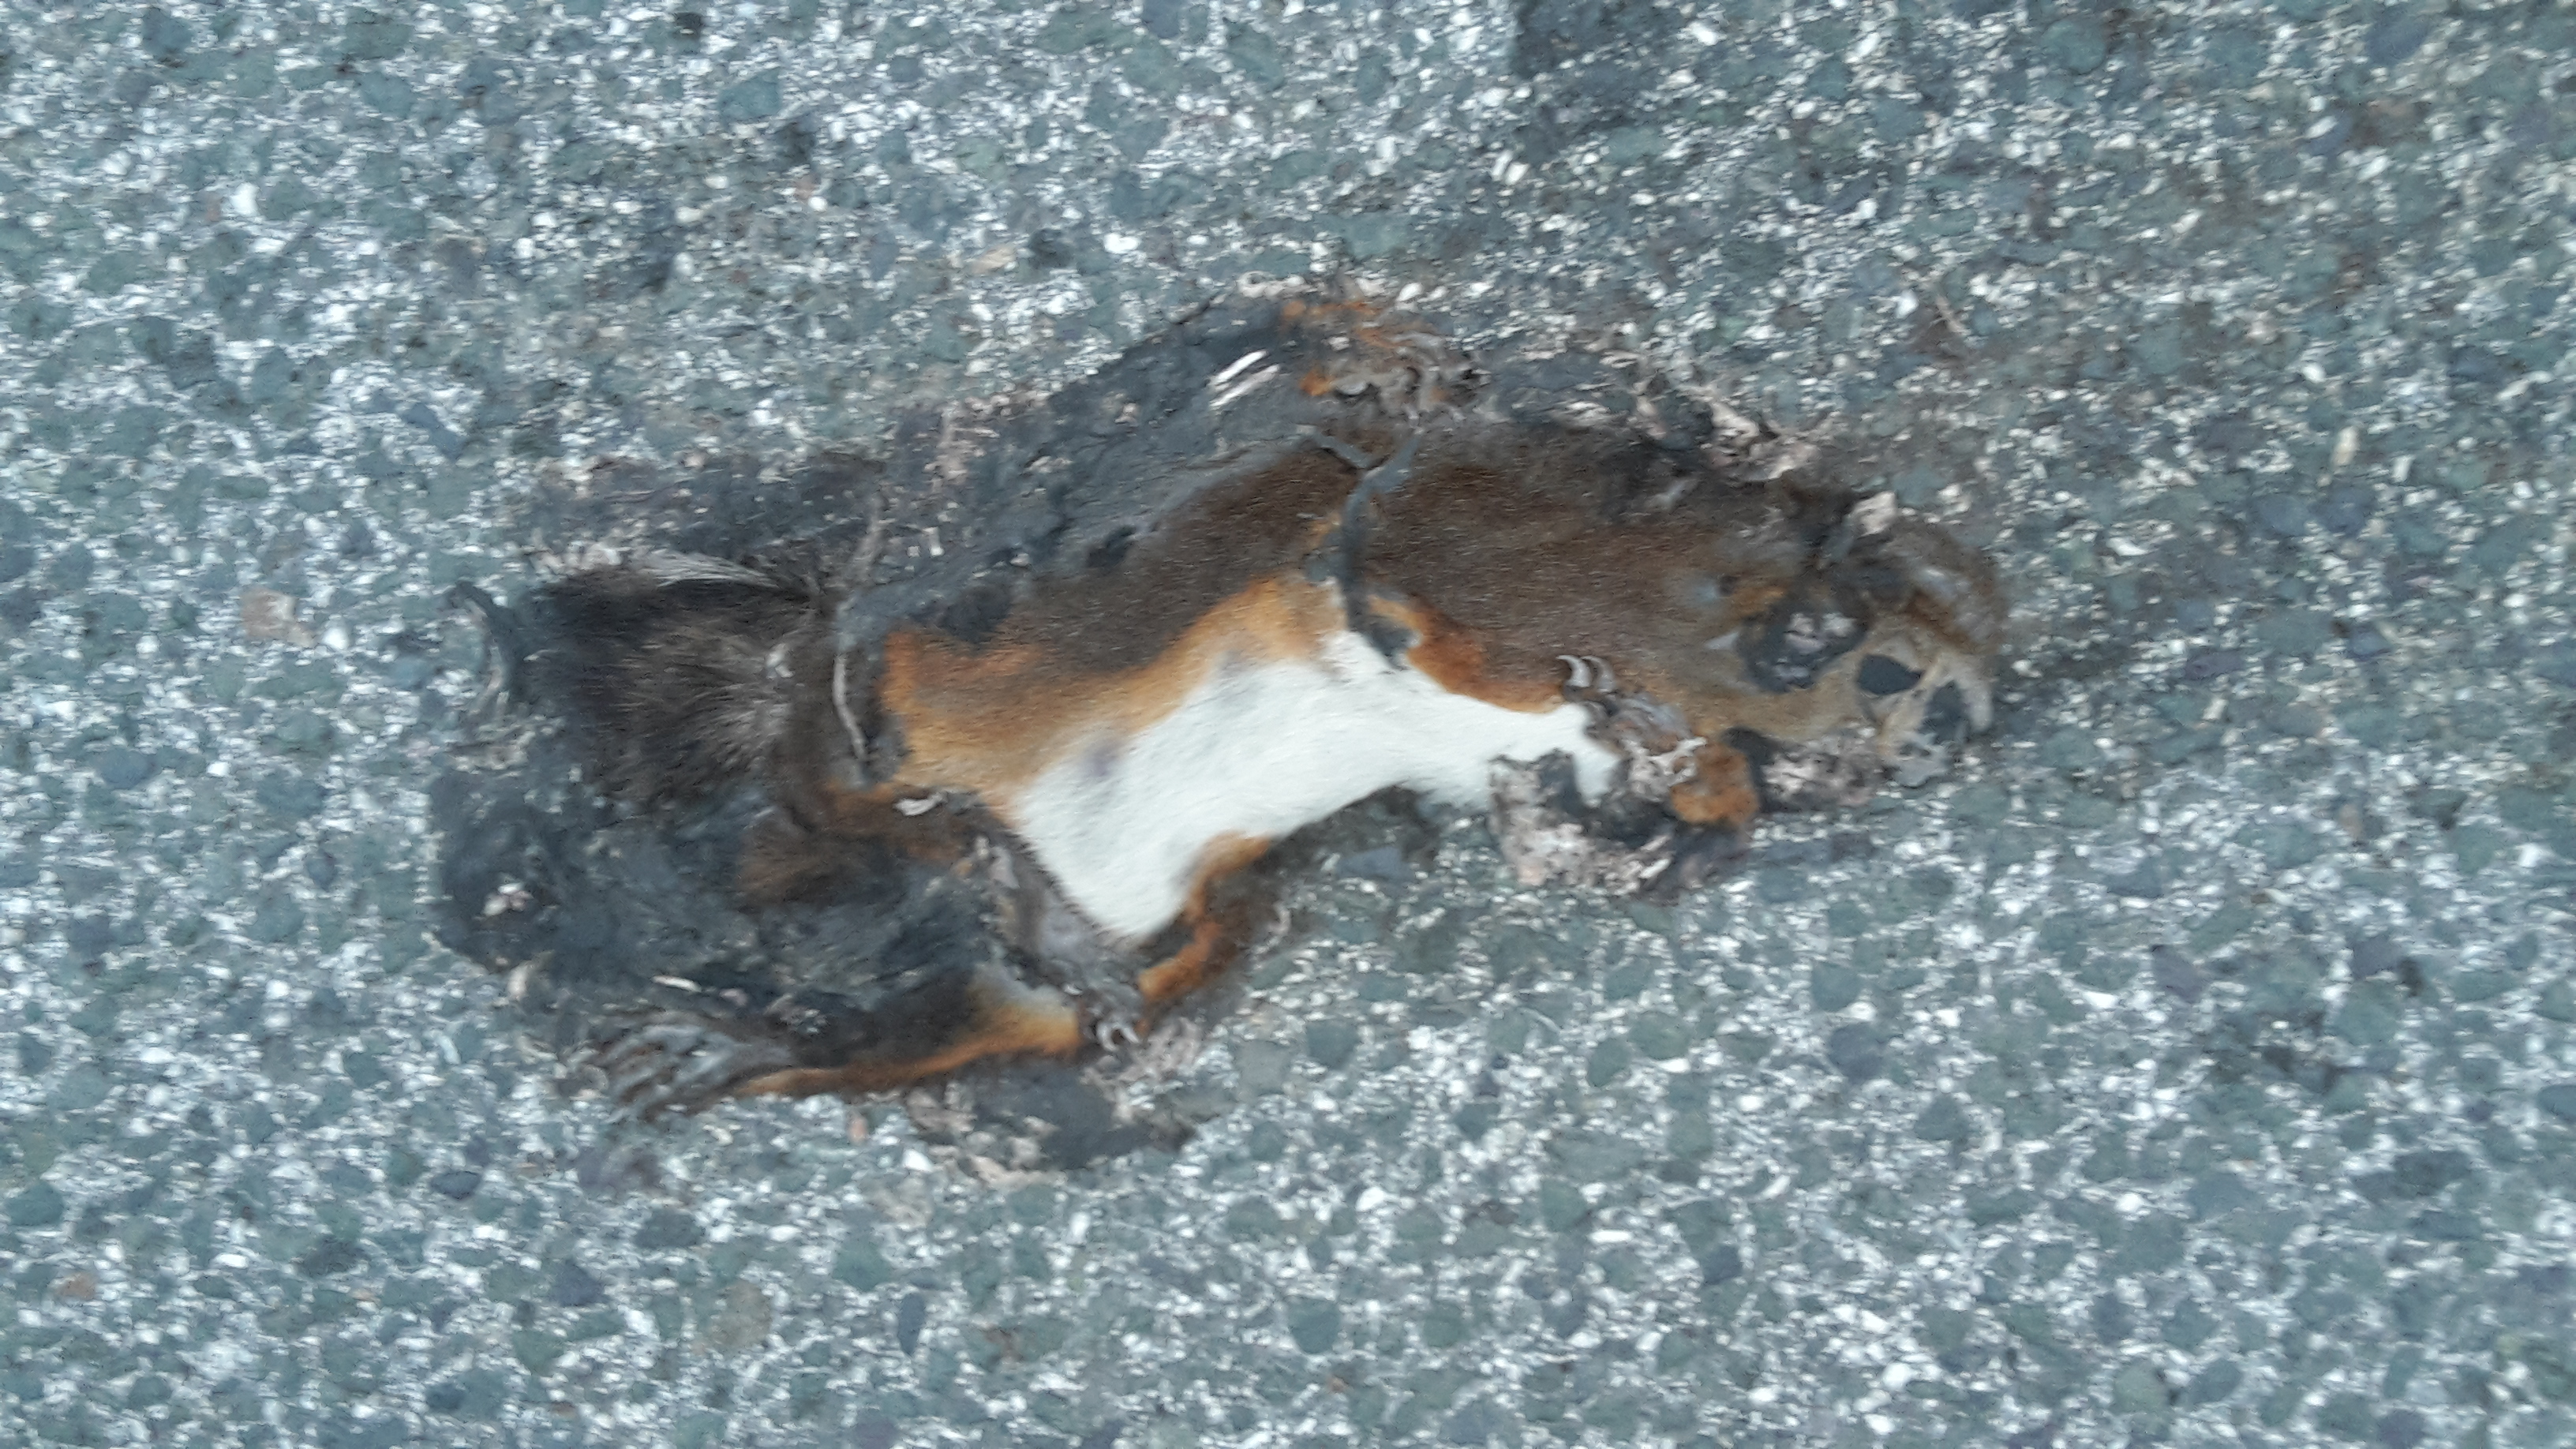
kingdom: Animalia
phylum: Chordata
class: Mammalia
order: Rodentia
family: Sciuridae
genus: Sciurus
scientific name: Sciurus vulgaris
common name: Eurasian red squirrel
